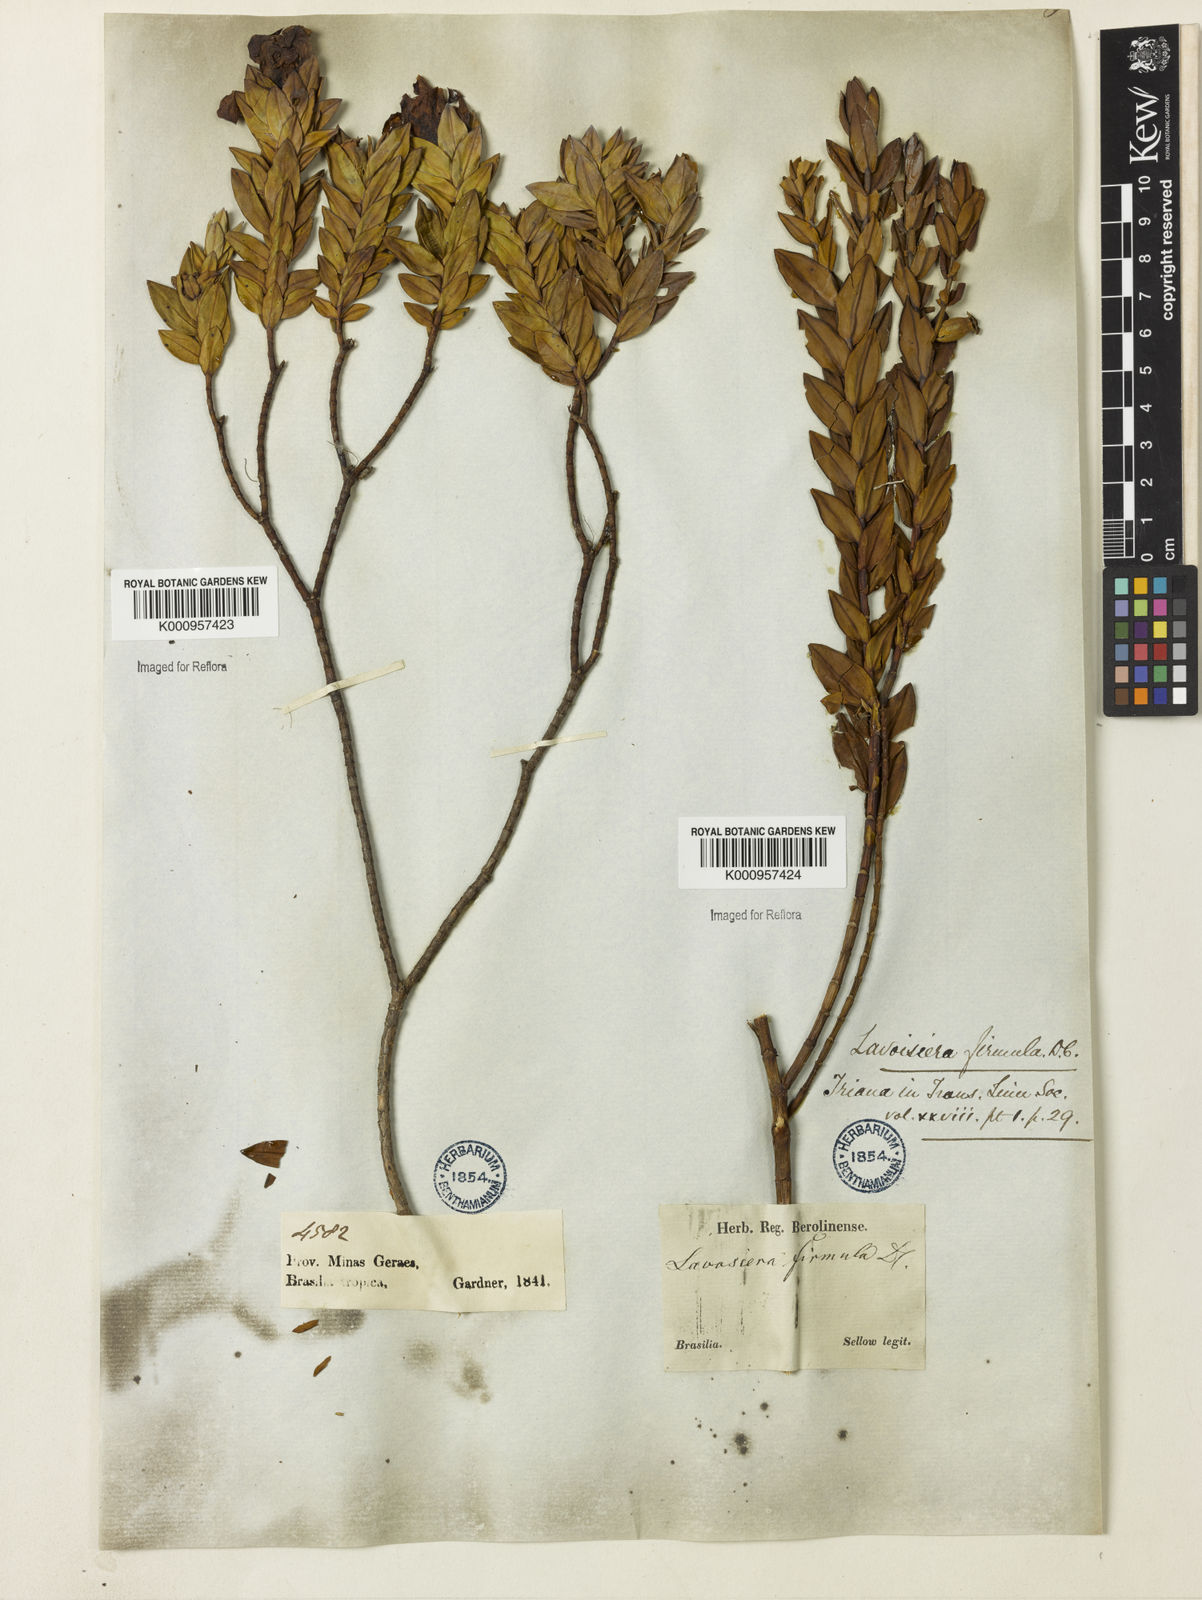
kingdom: Plantae
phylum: Tracheophyta
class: Magnoliopsida
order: Myrtales
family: Melastomataceae
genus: Microlicia
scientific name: Microlicia cordifolia
